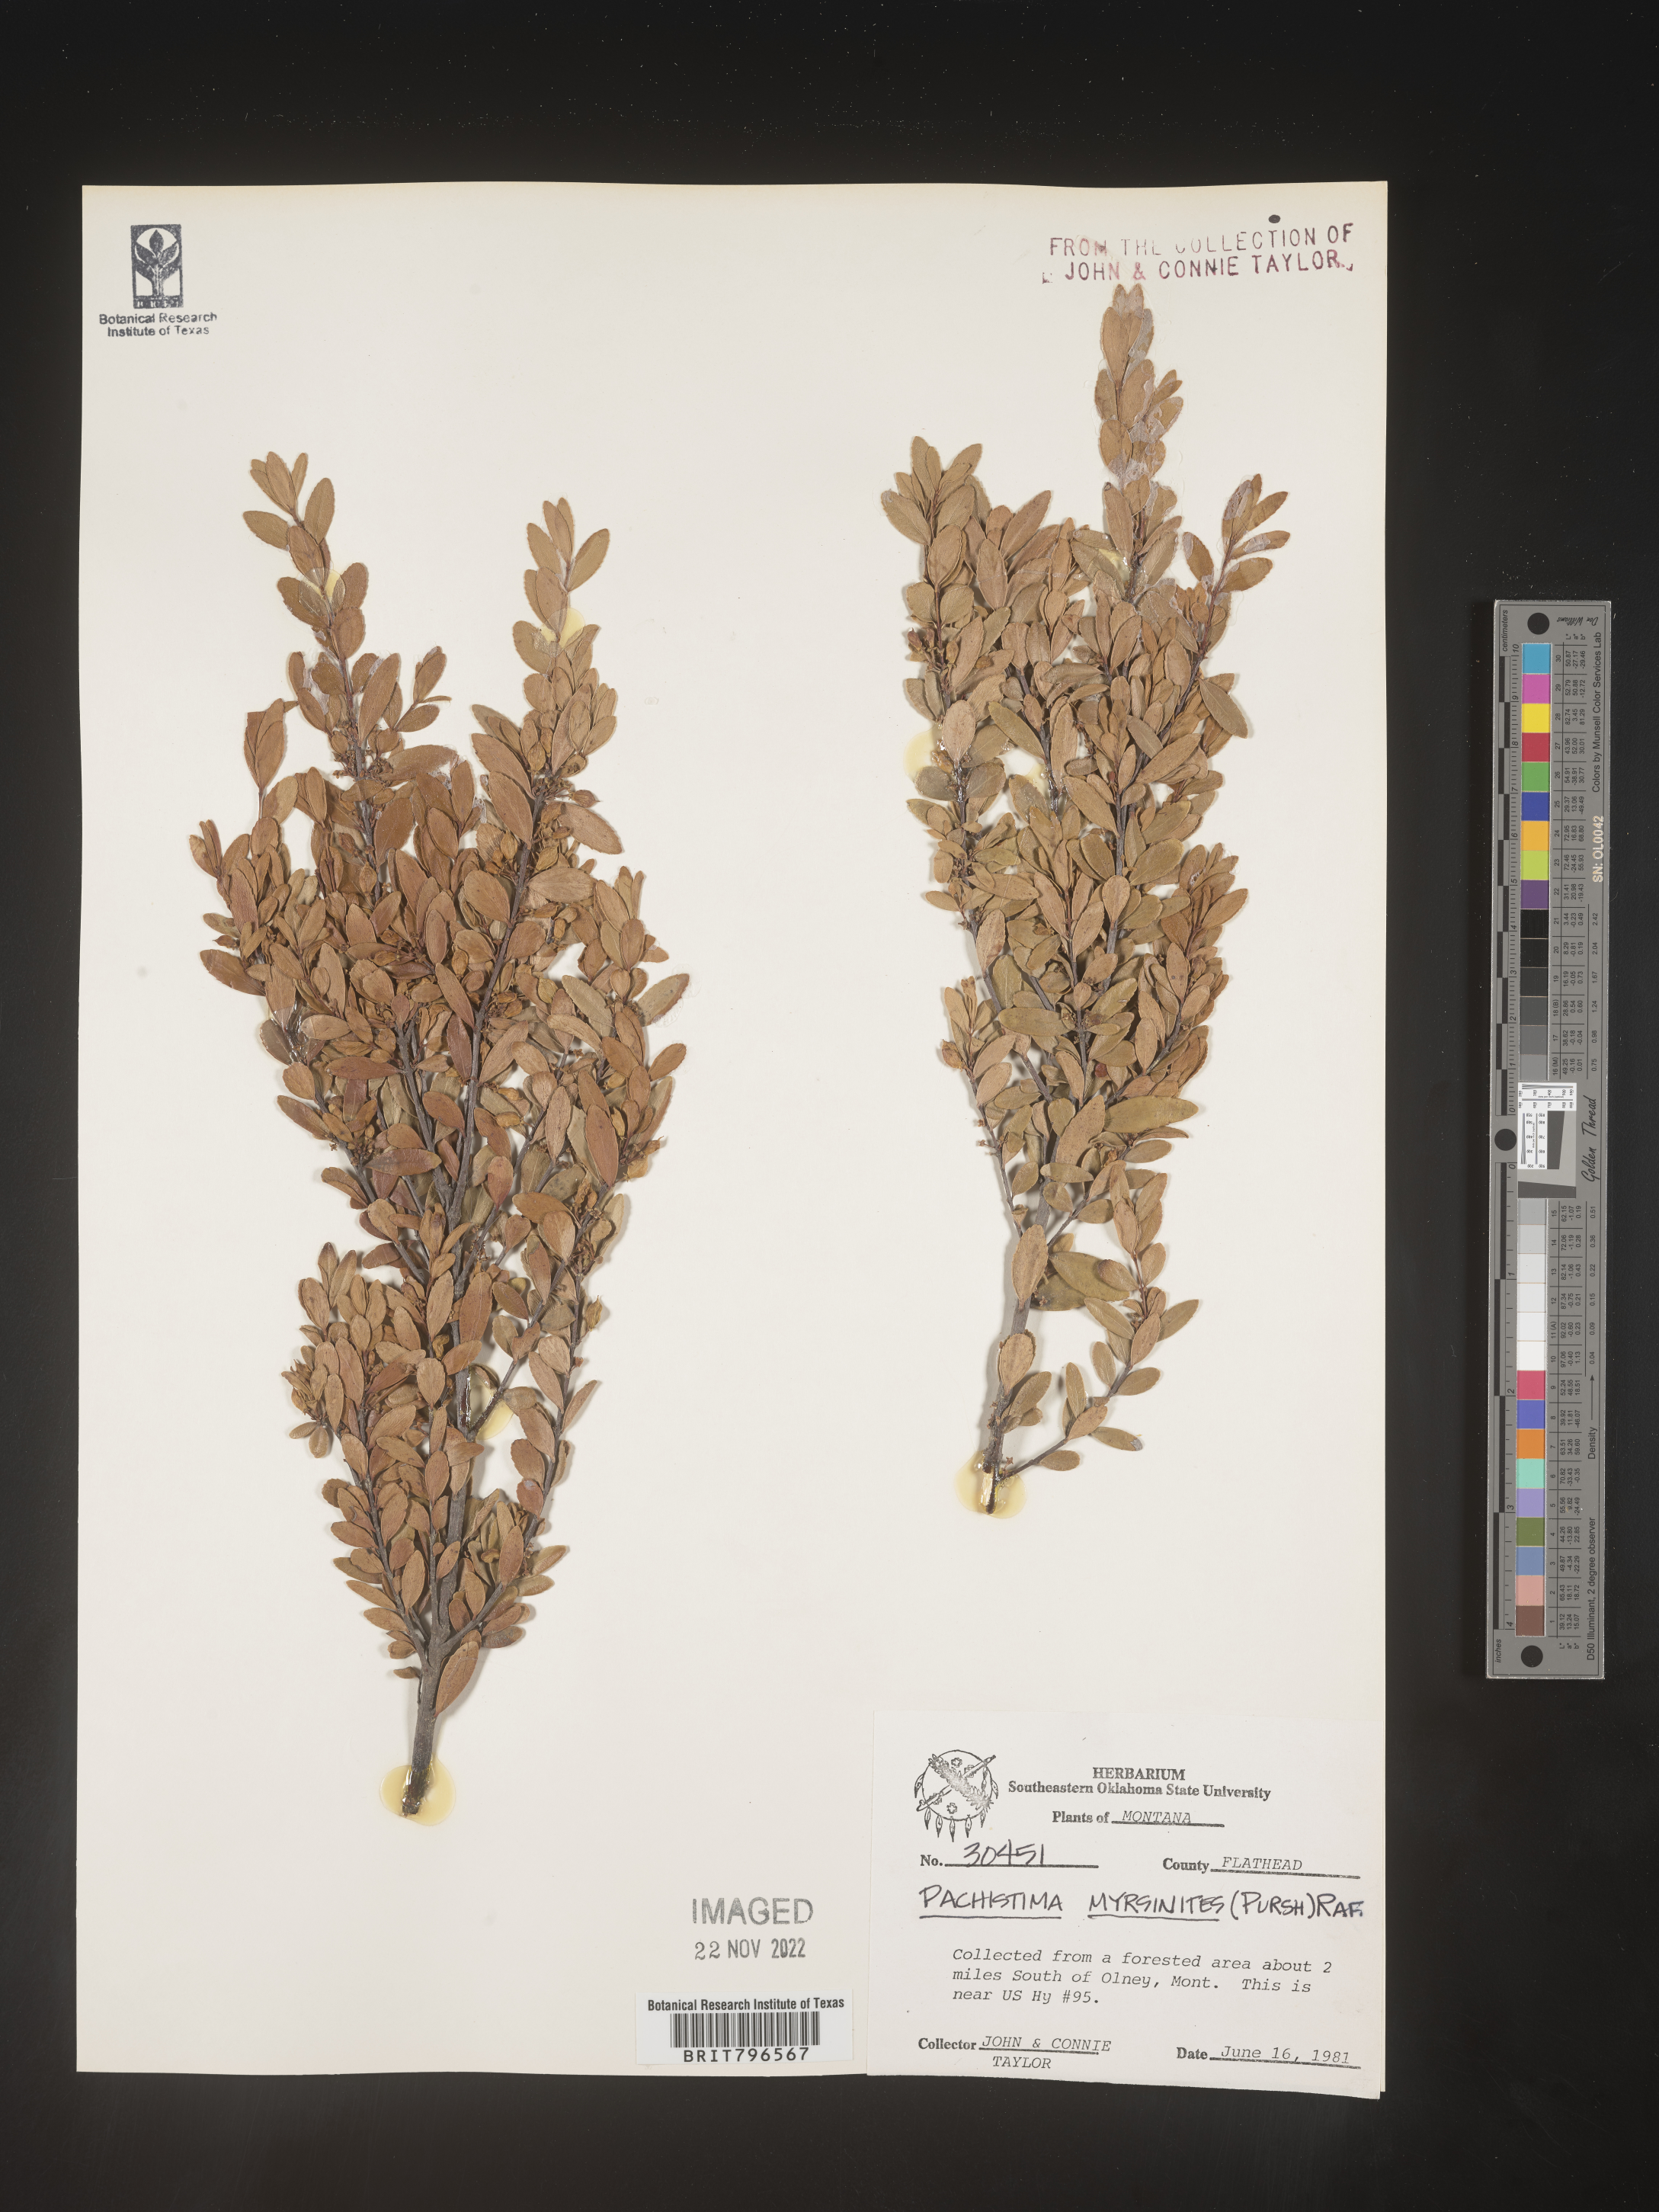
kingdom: Plantae
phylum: Tracheophyta
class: Magnoliopsida
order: Celastrales
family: Celastraceae
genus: Paxistima
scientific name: Paxistima myrsinites
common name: Mountain-lover
